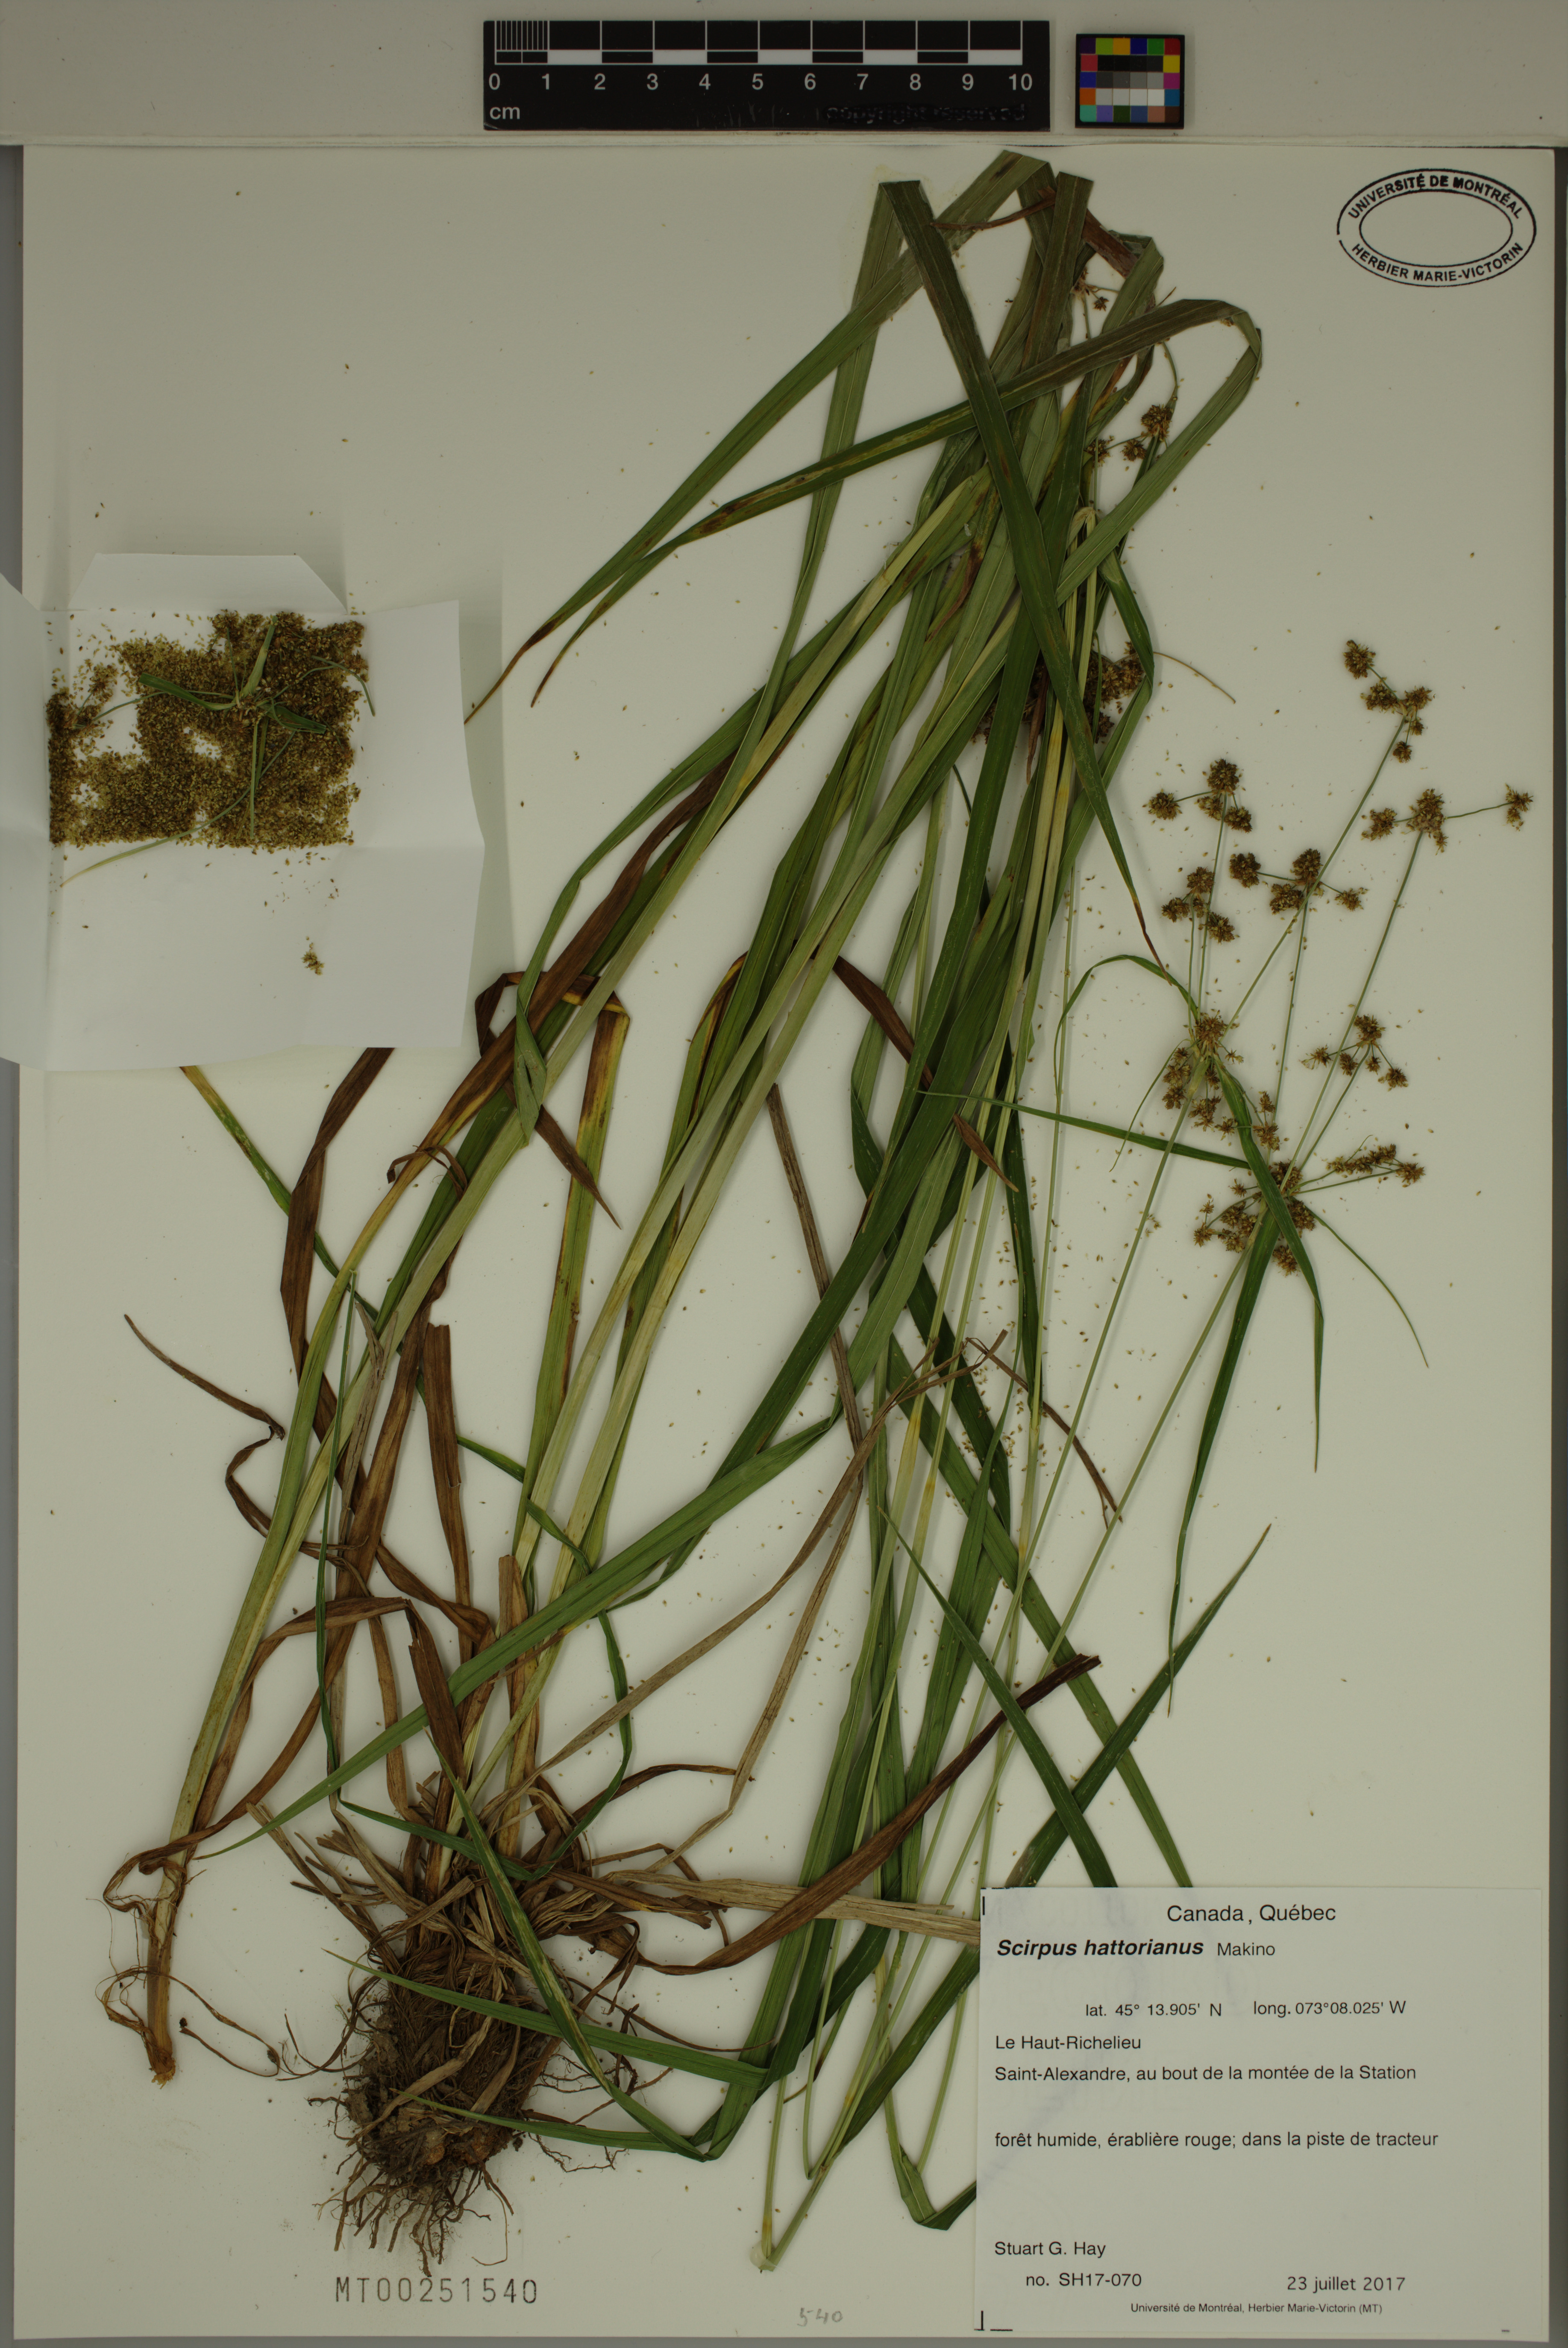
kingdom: Plantae
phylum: Tracheophyta
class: Liliopsida
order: Poales
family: Cyperaceae
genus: Scirpus
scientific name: Scirpus hattorianus
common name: Early dark-green bulrush
